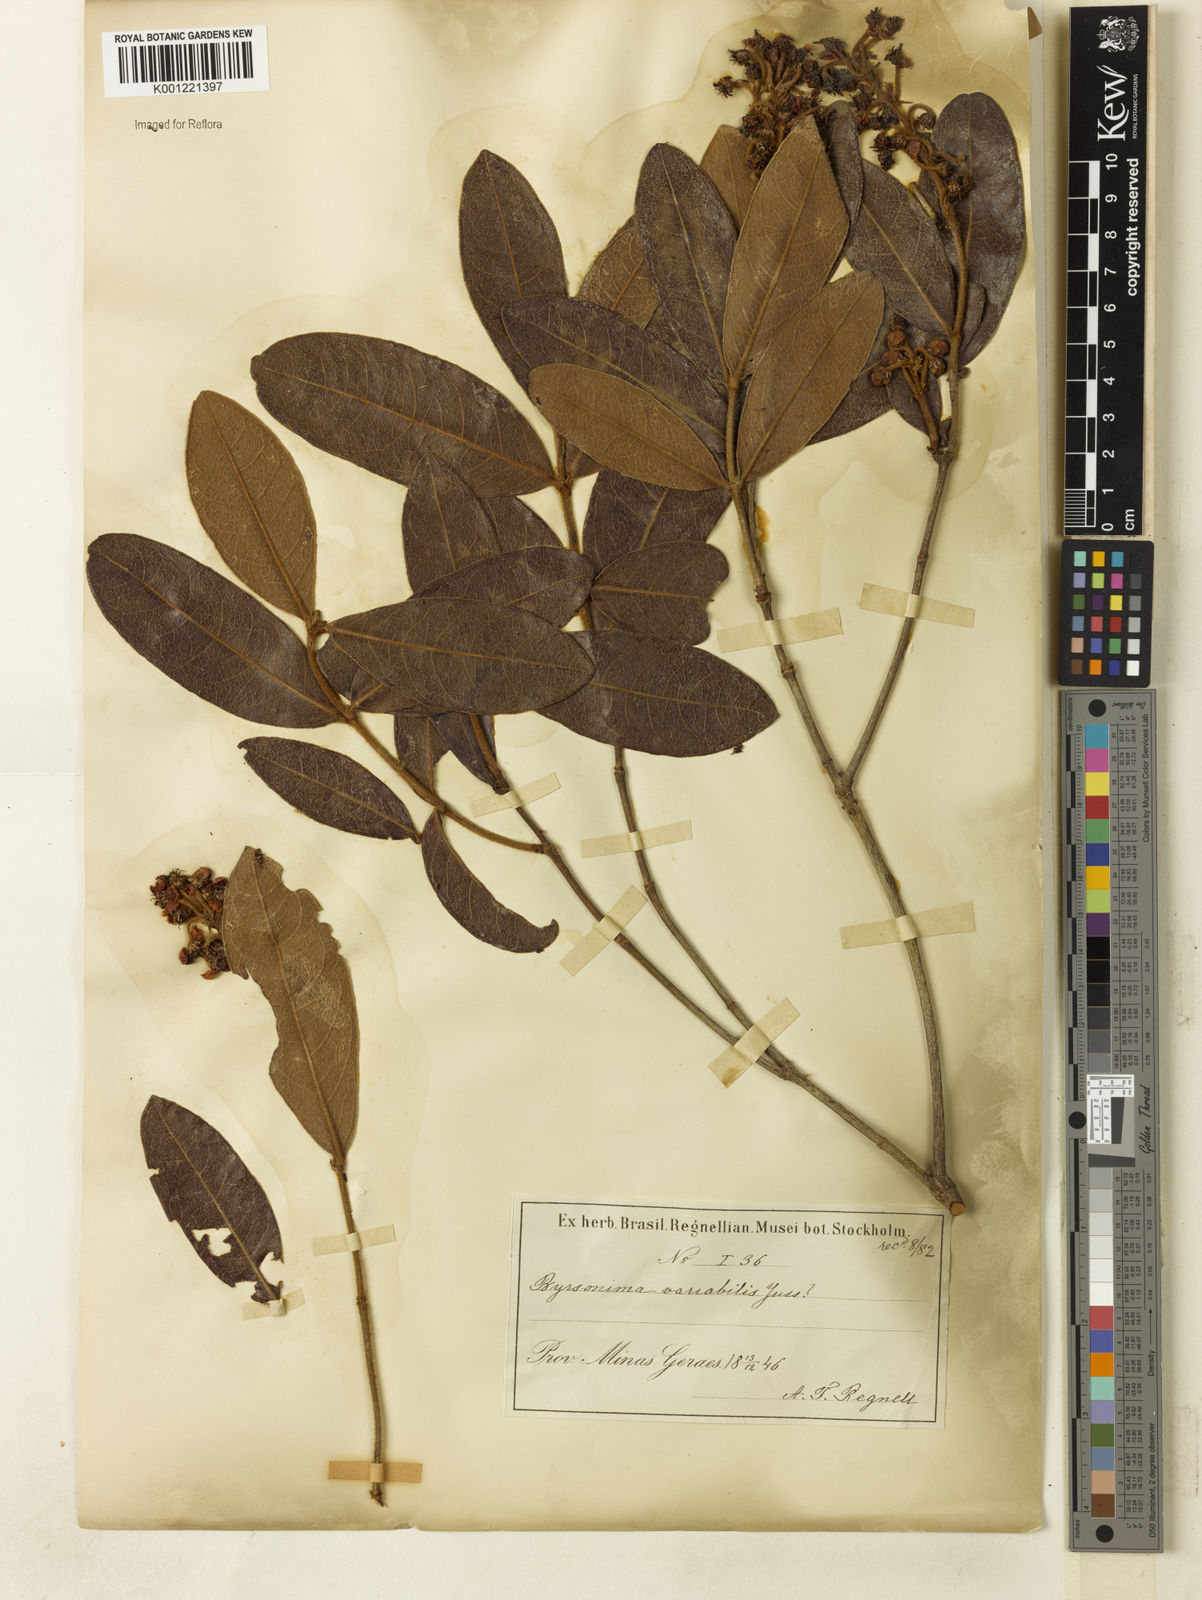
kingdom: Plantae
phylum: Tracheophyta
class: Magnoliopsida
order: Malpighiales
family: Malpighiaceae
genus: Byrsonima
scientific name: Byrsonima variabilis
